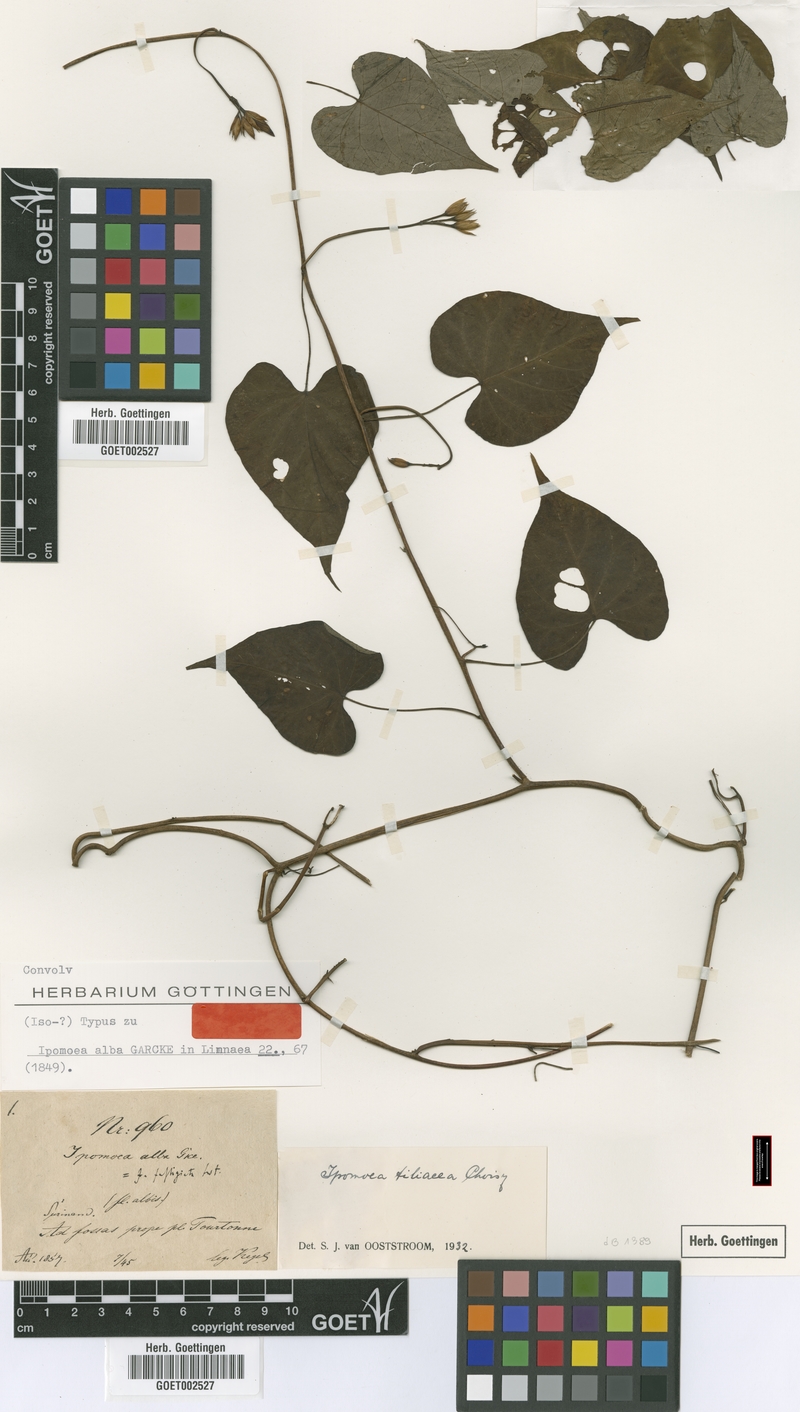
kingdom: Plantae
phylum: Tracheophyta
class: Magnoliopsida
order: Solanales
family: Convolvulaceae
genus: Ipomoea
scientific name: Ipomoea tiliacea
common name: Wild potato vine
